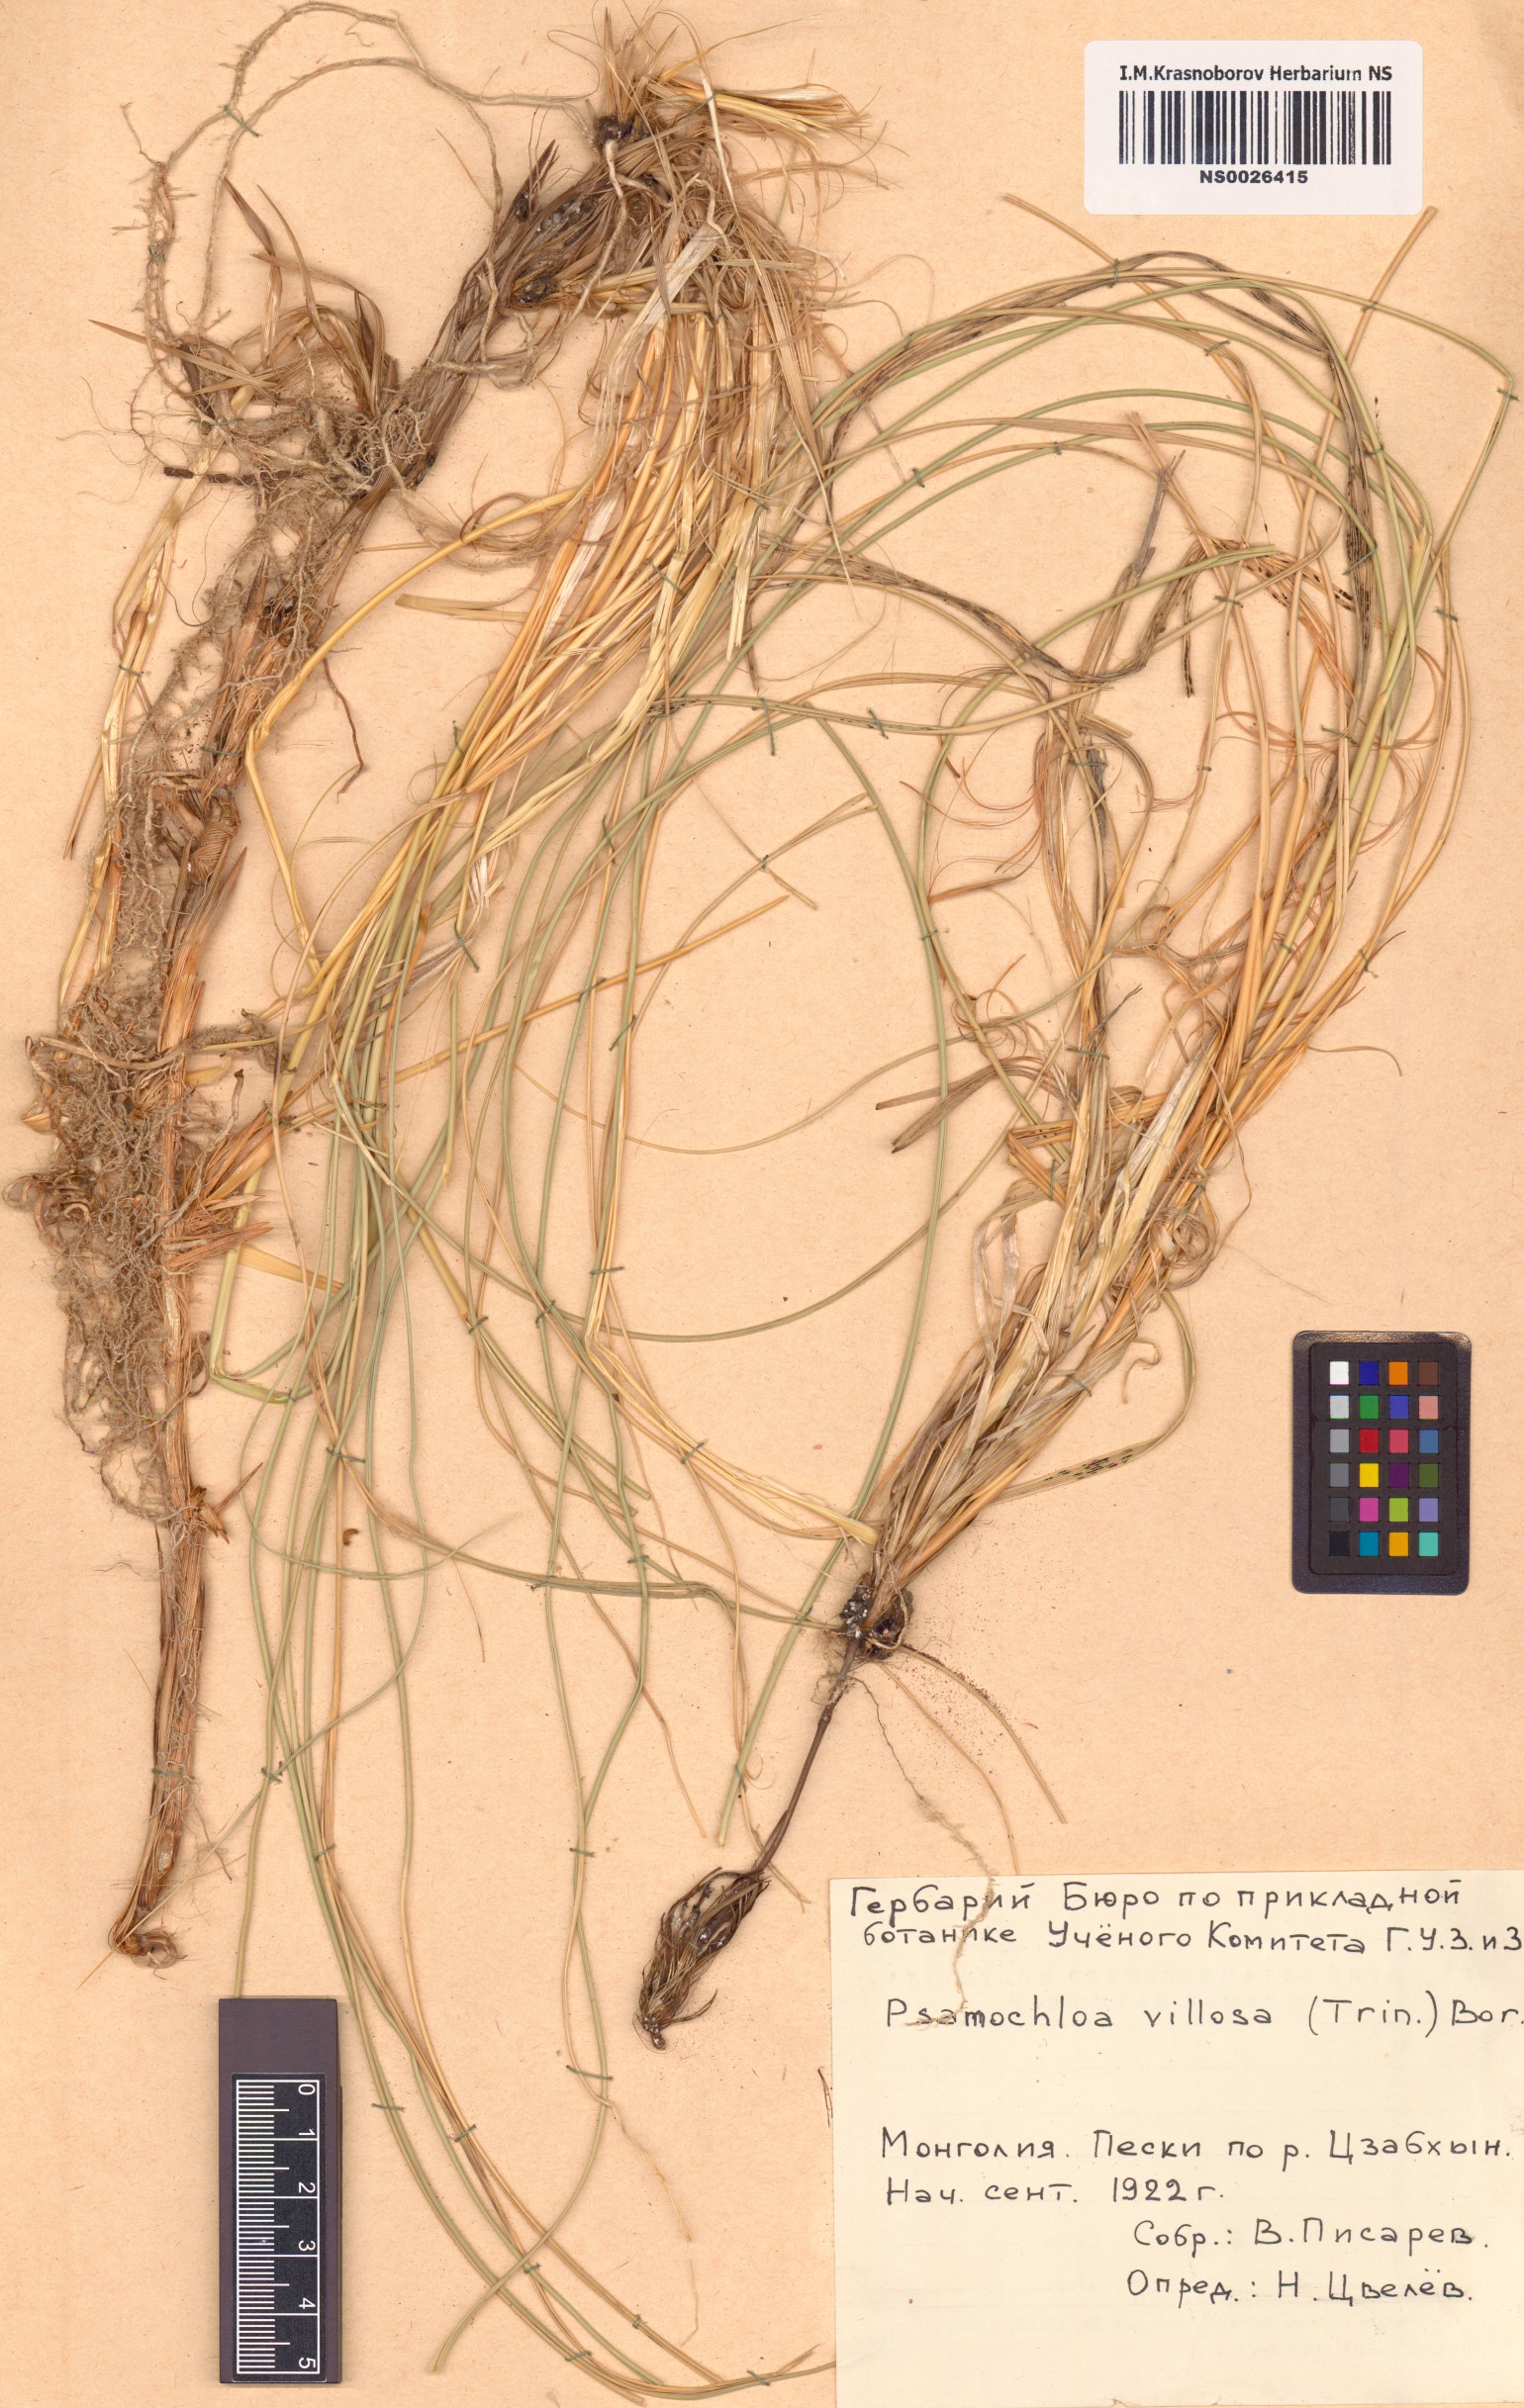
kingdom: Plantae
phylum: Tracheophyta
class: Liliopsida
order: Poales
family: Poaceae
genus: Psammochloa
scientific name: Psammochloa villosa
